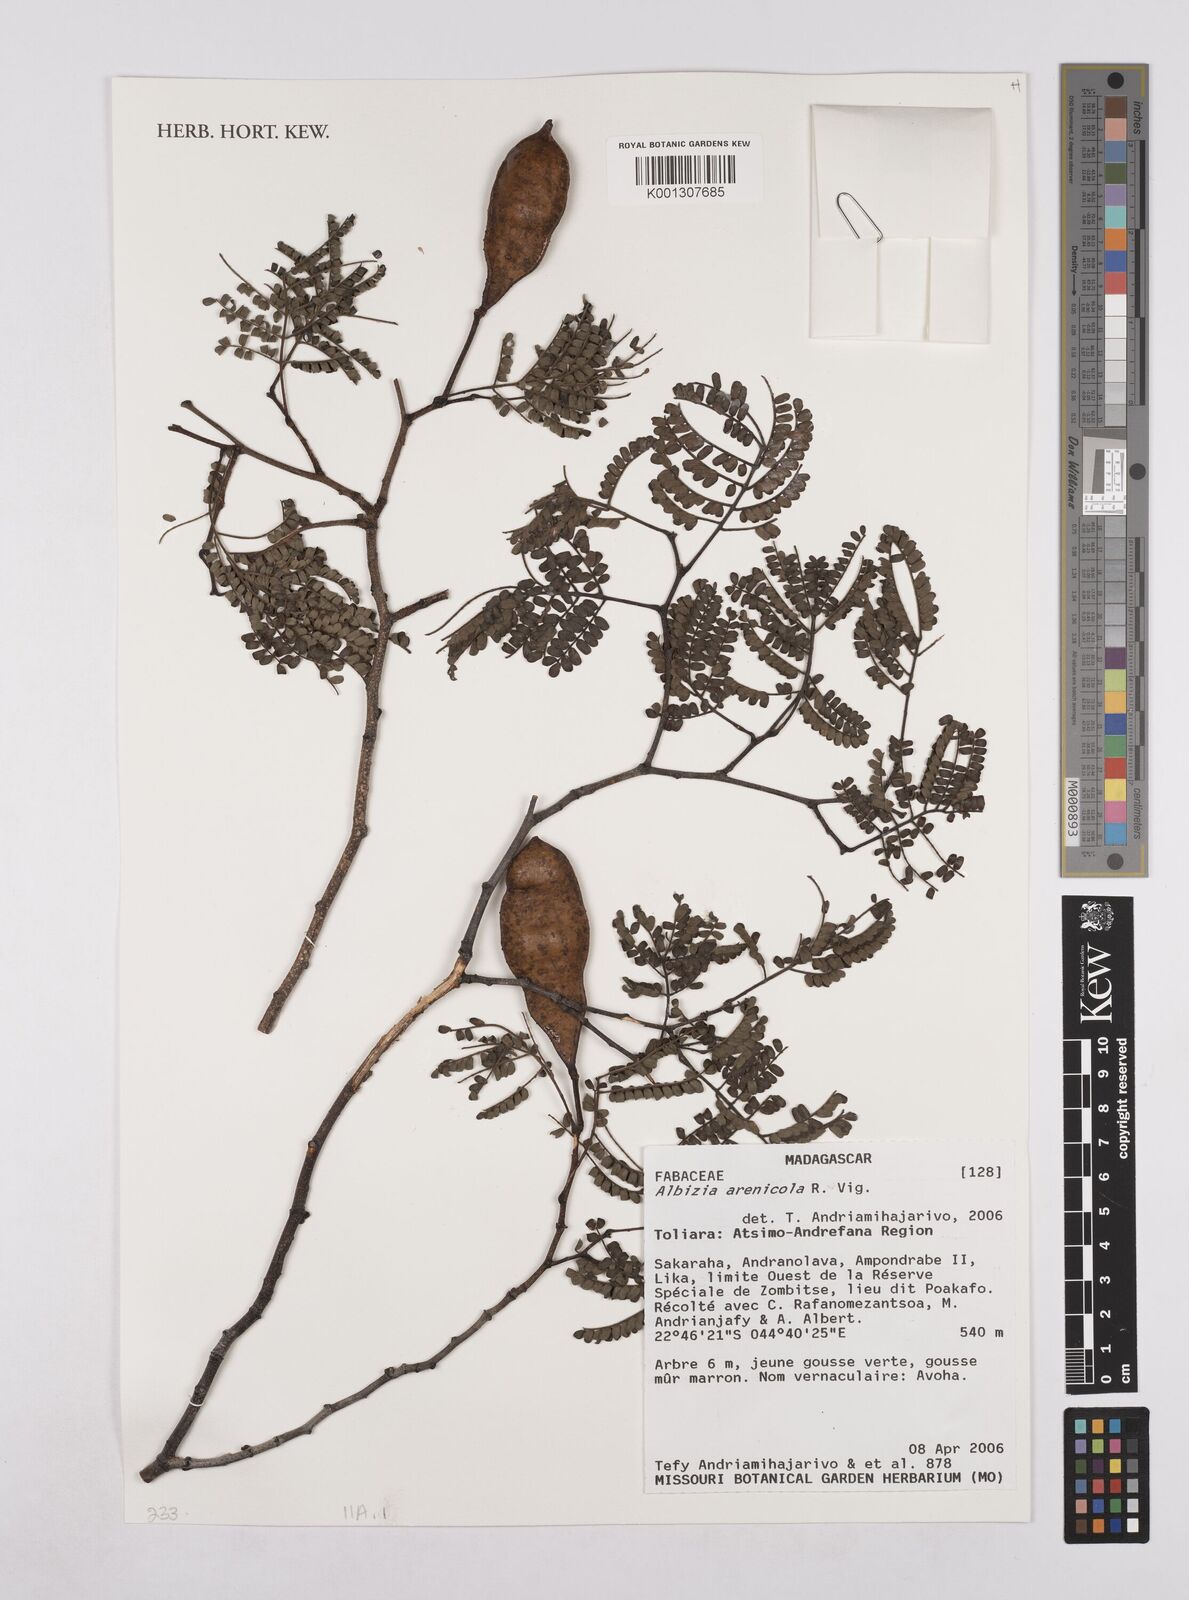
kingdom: Plantae
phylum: Tracheophyta
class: Magnoliopsida
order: Fabales
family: Fabaceae
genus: Albizia
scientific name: Albizia arenicola
